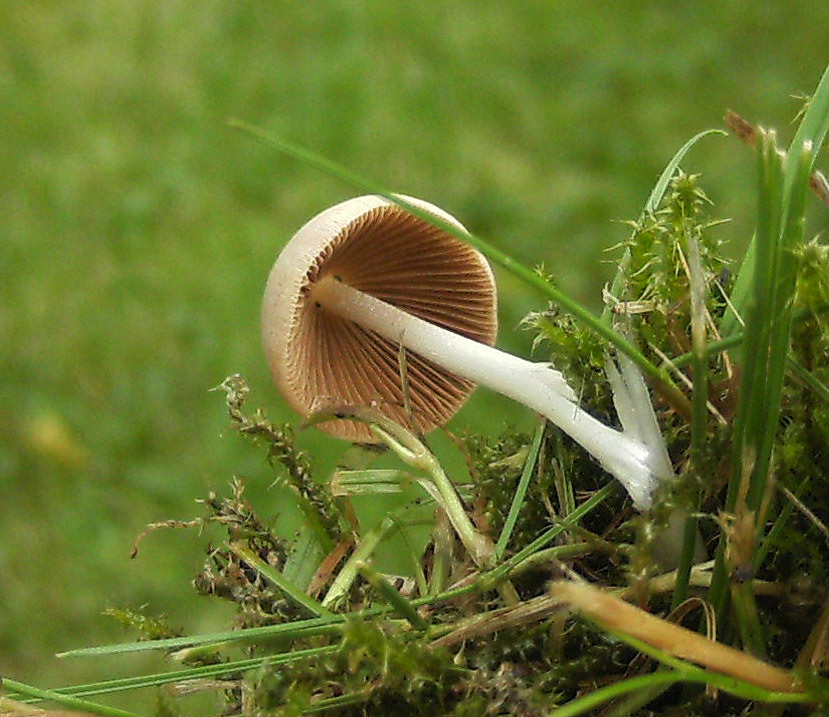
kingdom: Fungi
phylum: Basidiomycota
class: Agaricomycetes
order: Agaricales
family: Bolbitiaceae
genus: Conocybe
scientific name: Conocybe apala
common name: mælkehvid keglehat
